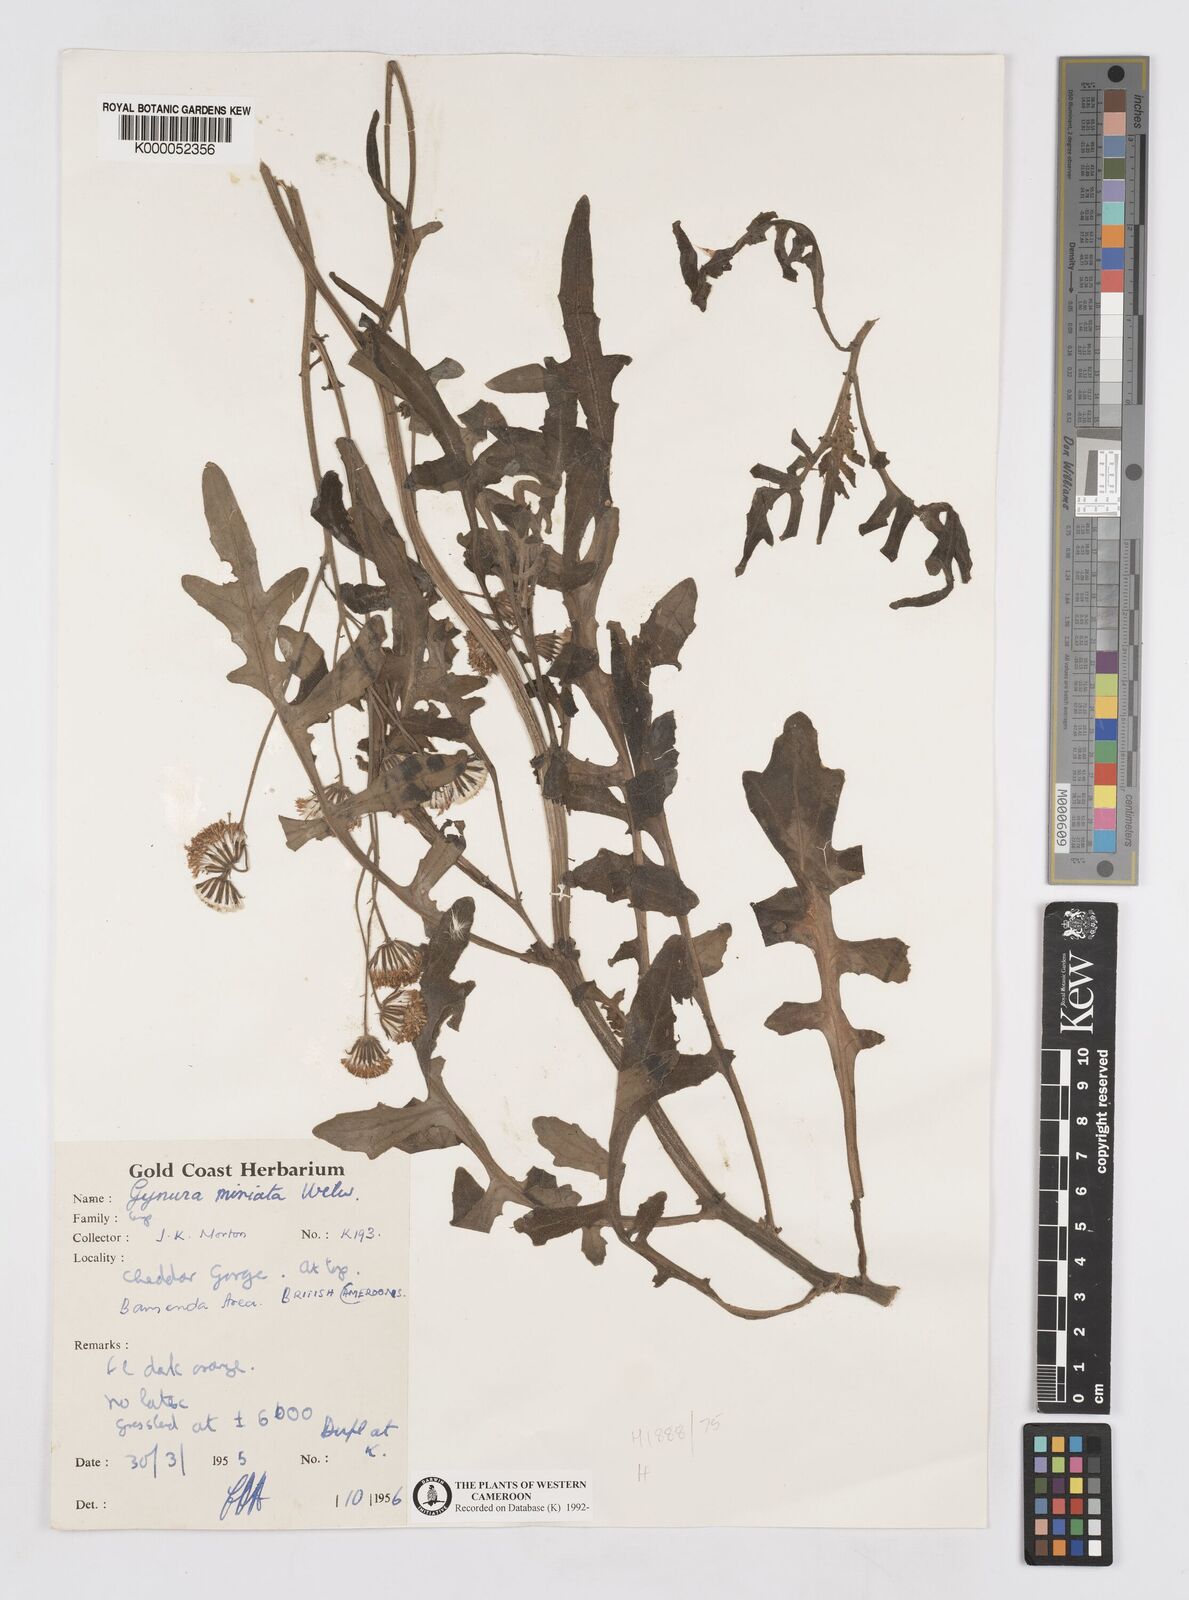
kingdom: Plantae
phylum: Tracheophyta
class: Magnoliopsida
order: Asterales
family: Asteraceae
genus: Gynura
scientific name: Gynura pseudochina
